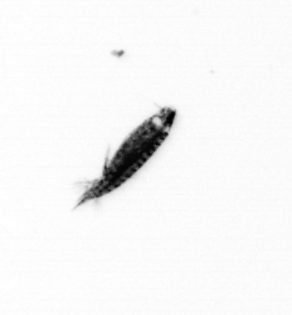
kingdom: Animalia
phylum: Arthropoda
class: Copepoda
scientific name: Copepoda
